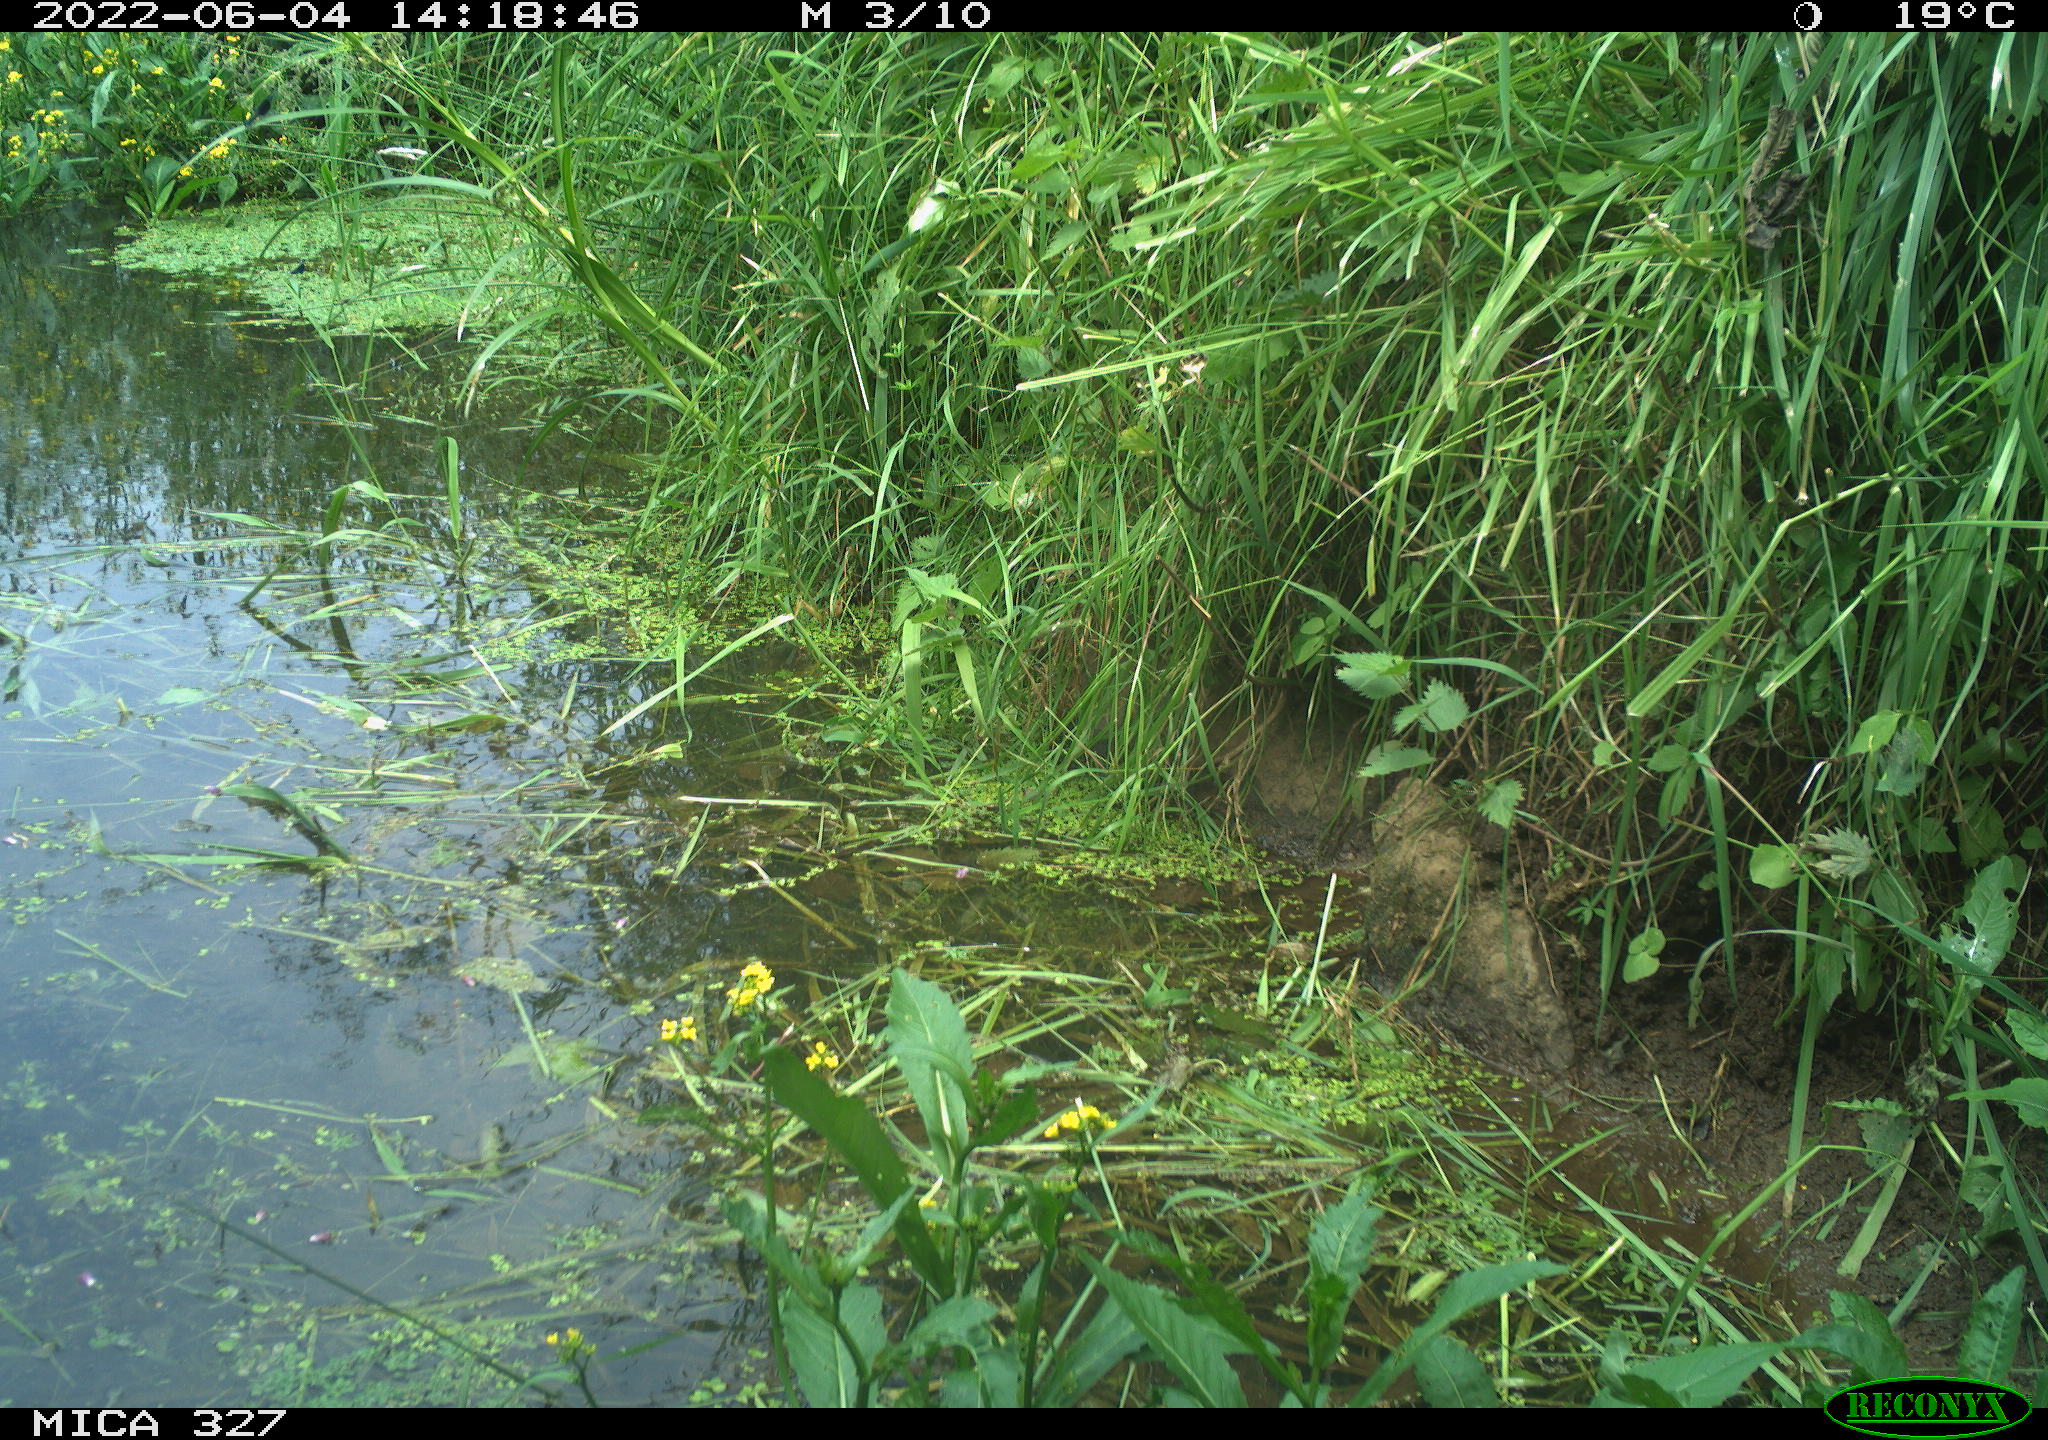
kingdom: Animalia
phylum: Chordata
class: Mammalia
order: Rodentia
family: Muridae
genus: Rattus
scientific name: Rattus norvegicus
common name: Brown rat
